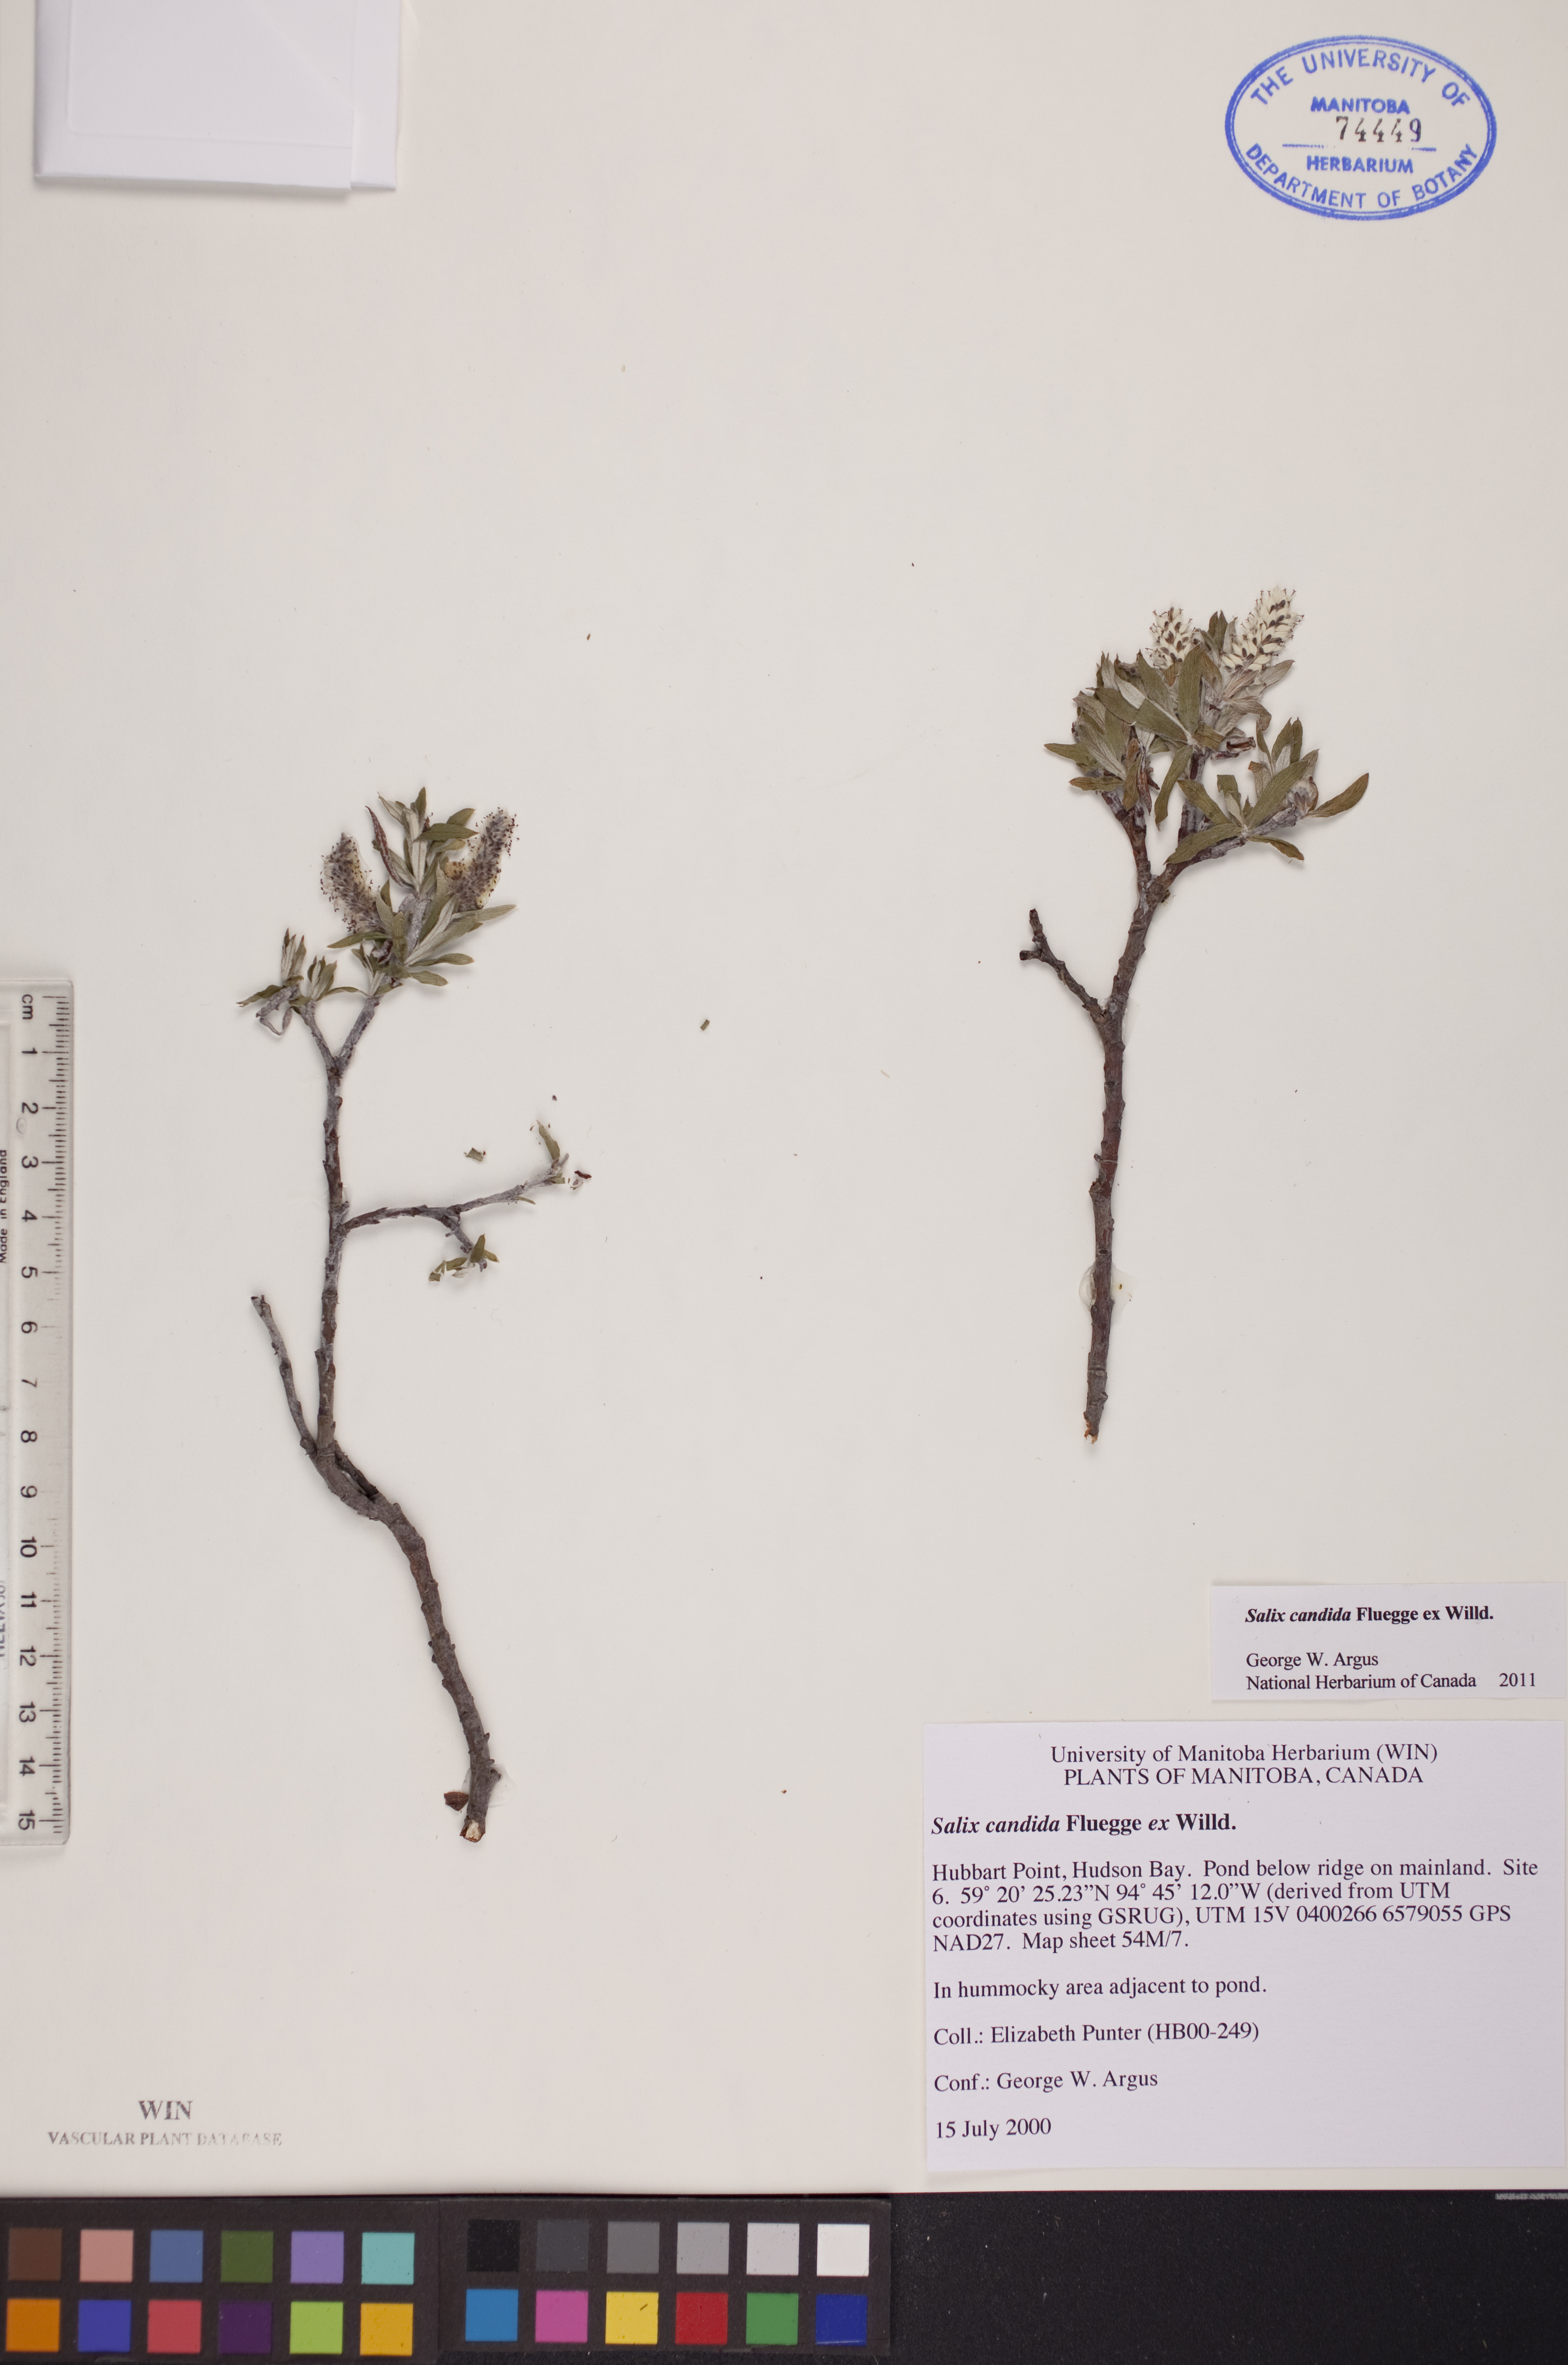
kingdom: Plantae
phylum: Tracheophyta
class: Magnoliopsida
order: Malpighiales
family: Salicaceae
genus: Salix
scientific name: Salix candida
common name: Hoary willow
